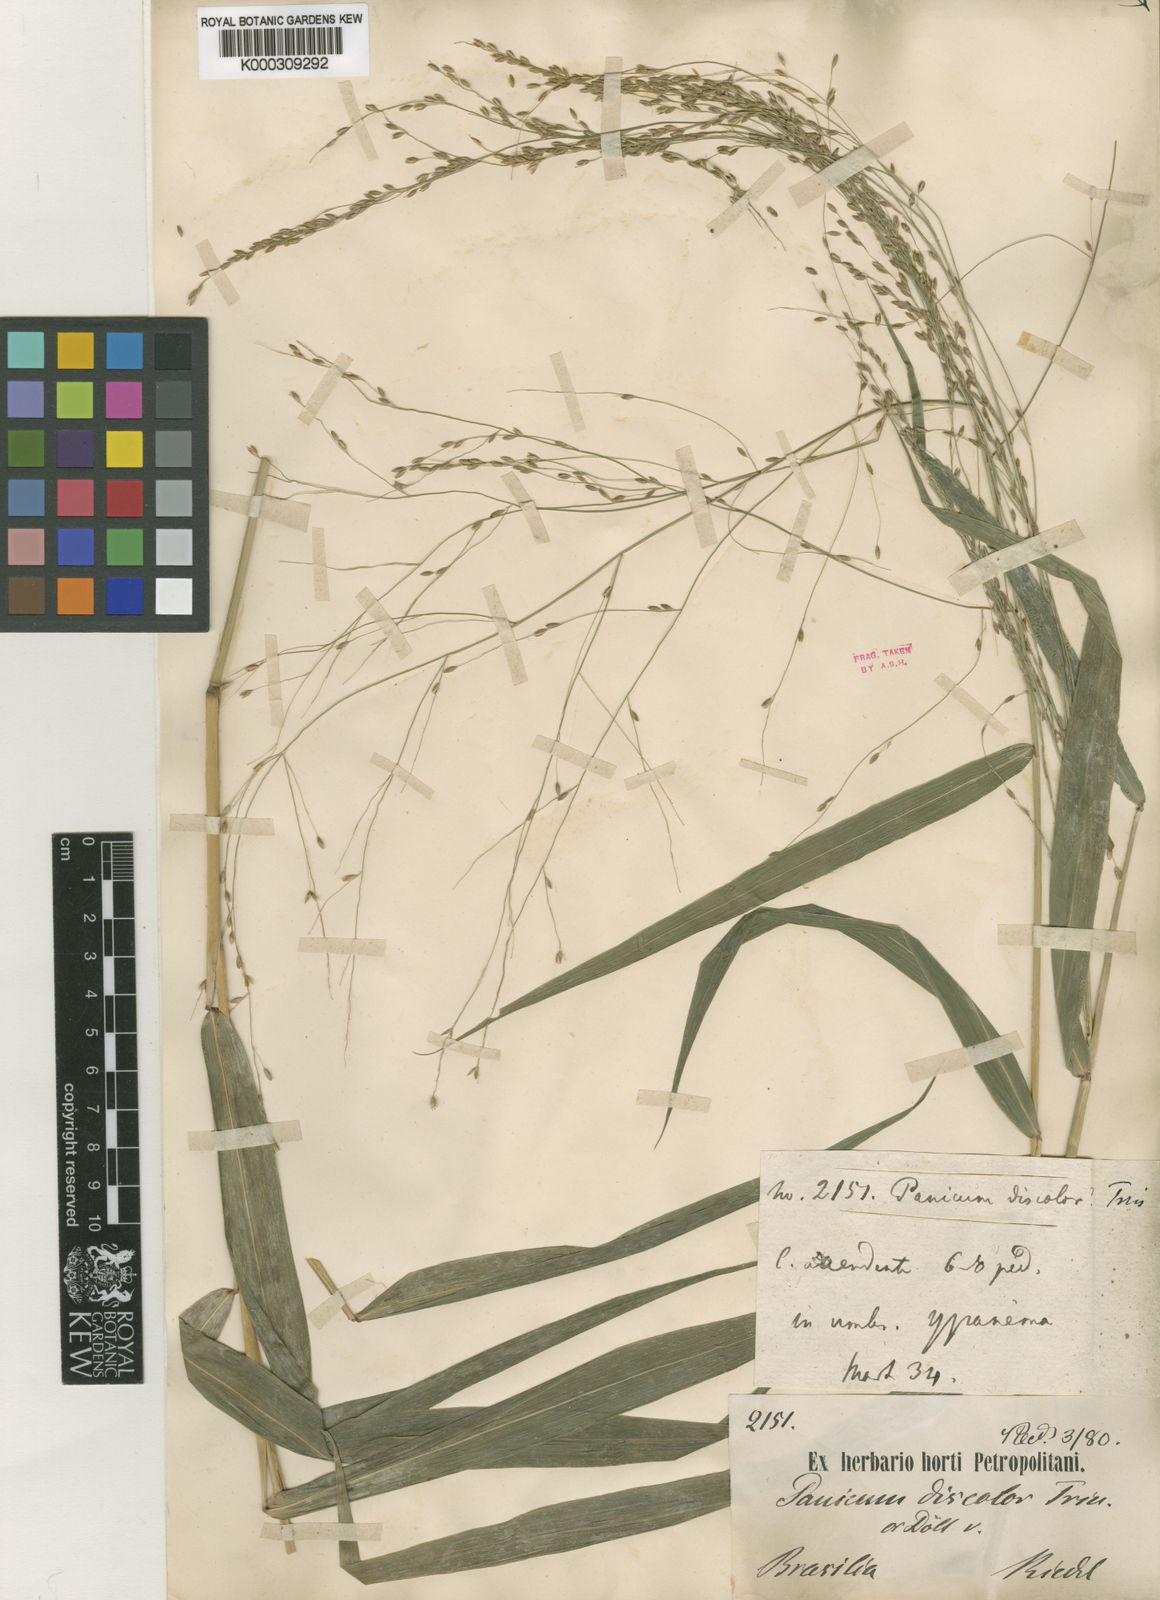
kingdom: Plantae
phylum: Tracheophyta
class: Liliopsida
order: Poales
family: Poaceae
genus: Parodiophyllochloa
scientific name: Parodiophyllochloa penicillata
